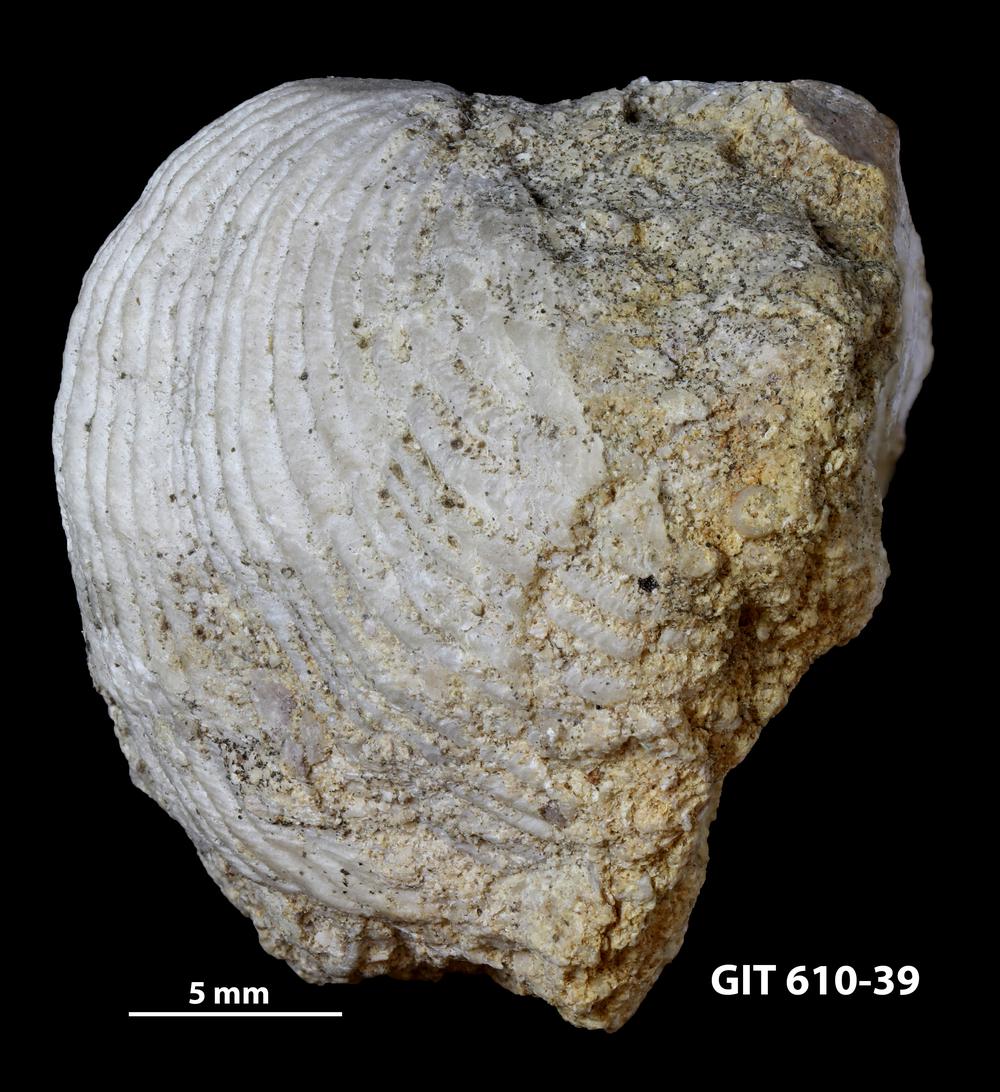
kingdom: Animalia
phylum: Brachiopoda
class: Rhynchonellata
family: Triplesiidae
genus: Cliftonia
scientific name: Cliftonia
